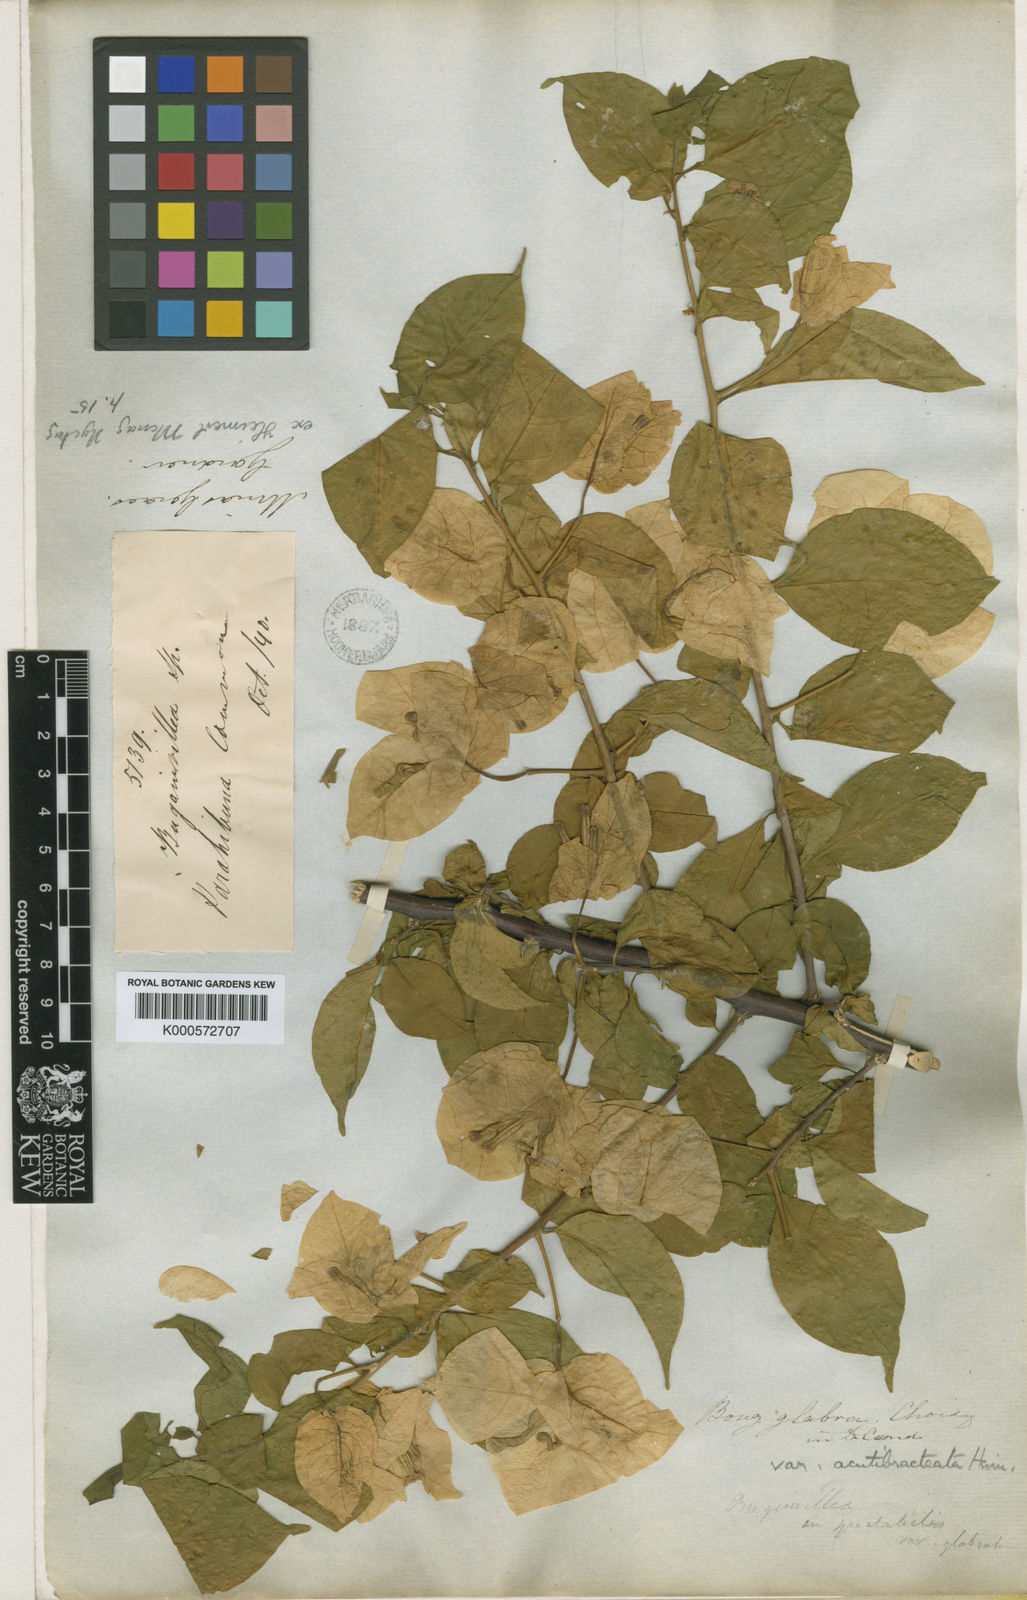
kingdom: Plantae
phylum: Tracheophyta
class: Magnoliopsida
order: Caryophyllales
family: Nyctaginaceae
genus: Bougainvillea
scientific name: Bougainvillea glabra
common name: Paperflower
